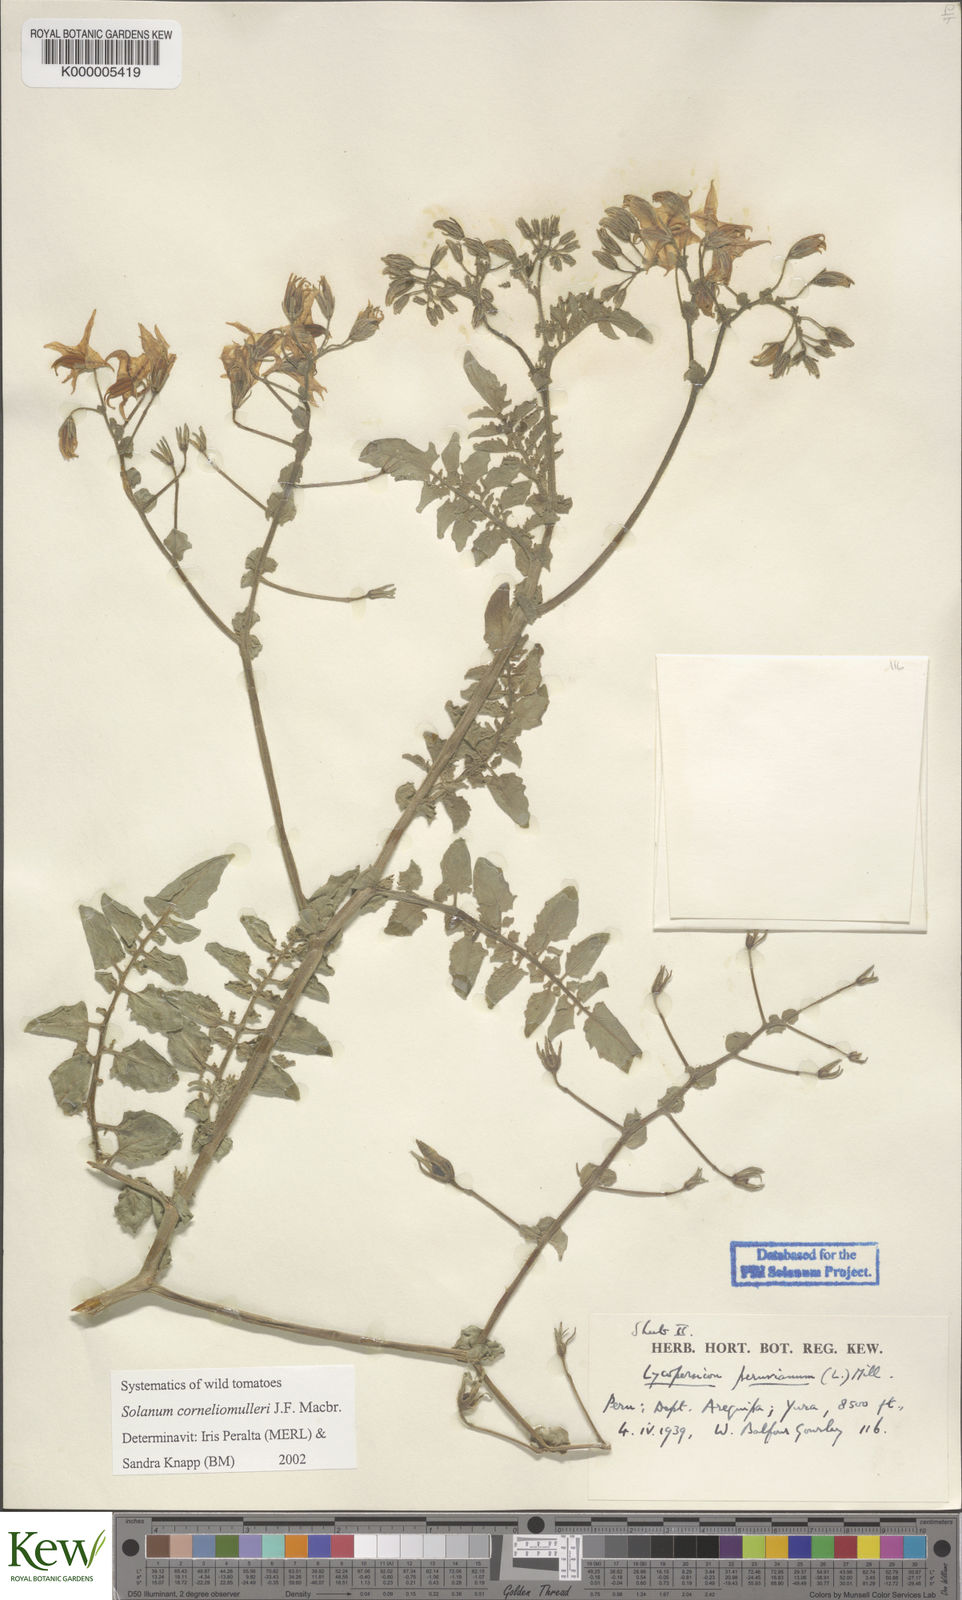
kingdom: Plantae
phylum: Tracheophyta
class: Magnoliopsida
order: Solanales
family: Solanaceae
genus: Solanum
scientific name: Solanum corneliomulleri
